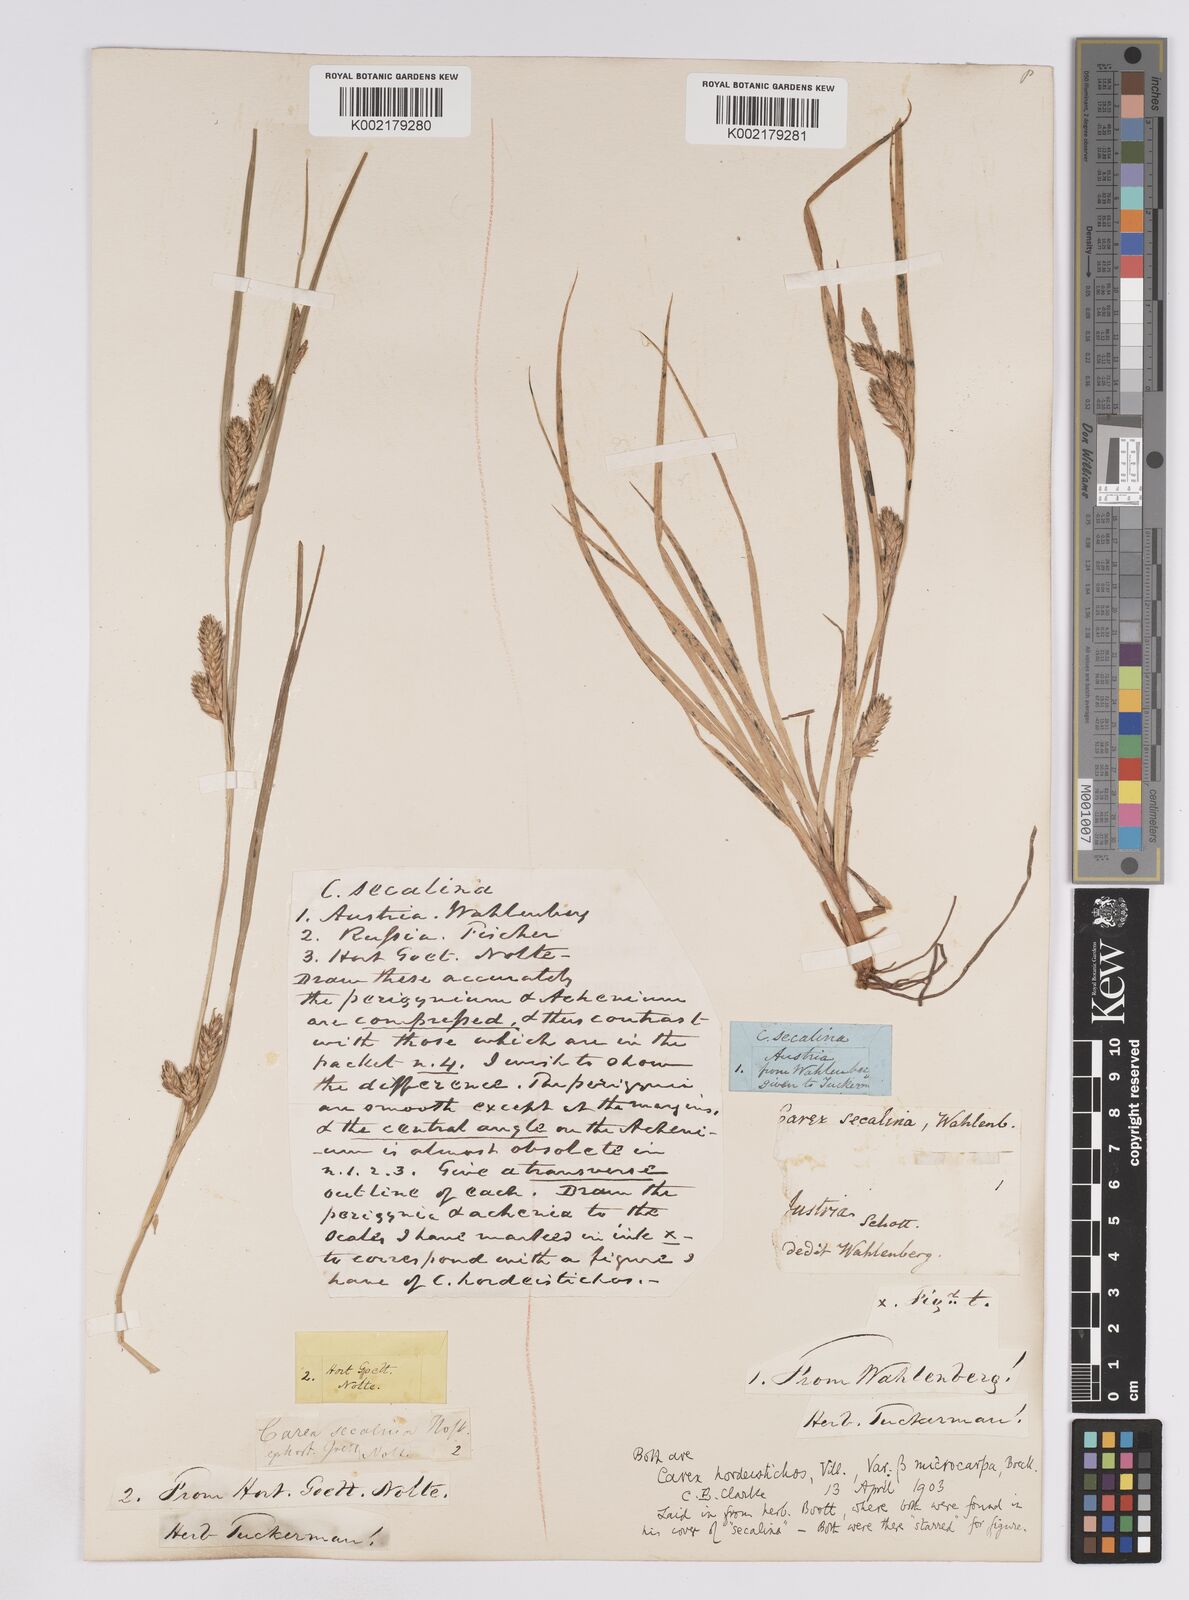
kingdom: Plantae
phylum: Tracheophyta
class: Liliopsida
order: Poales
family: Cyperaceae
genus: Carex
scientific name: Carex hordeistichos
